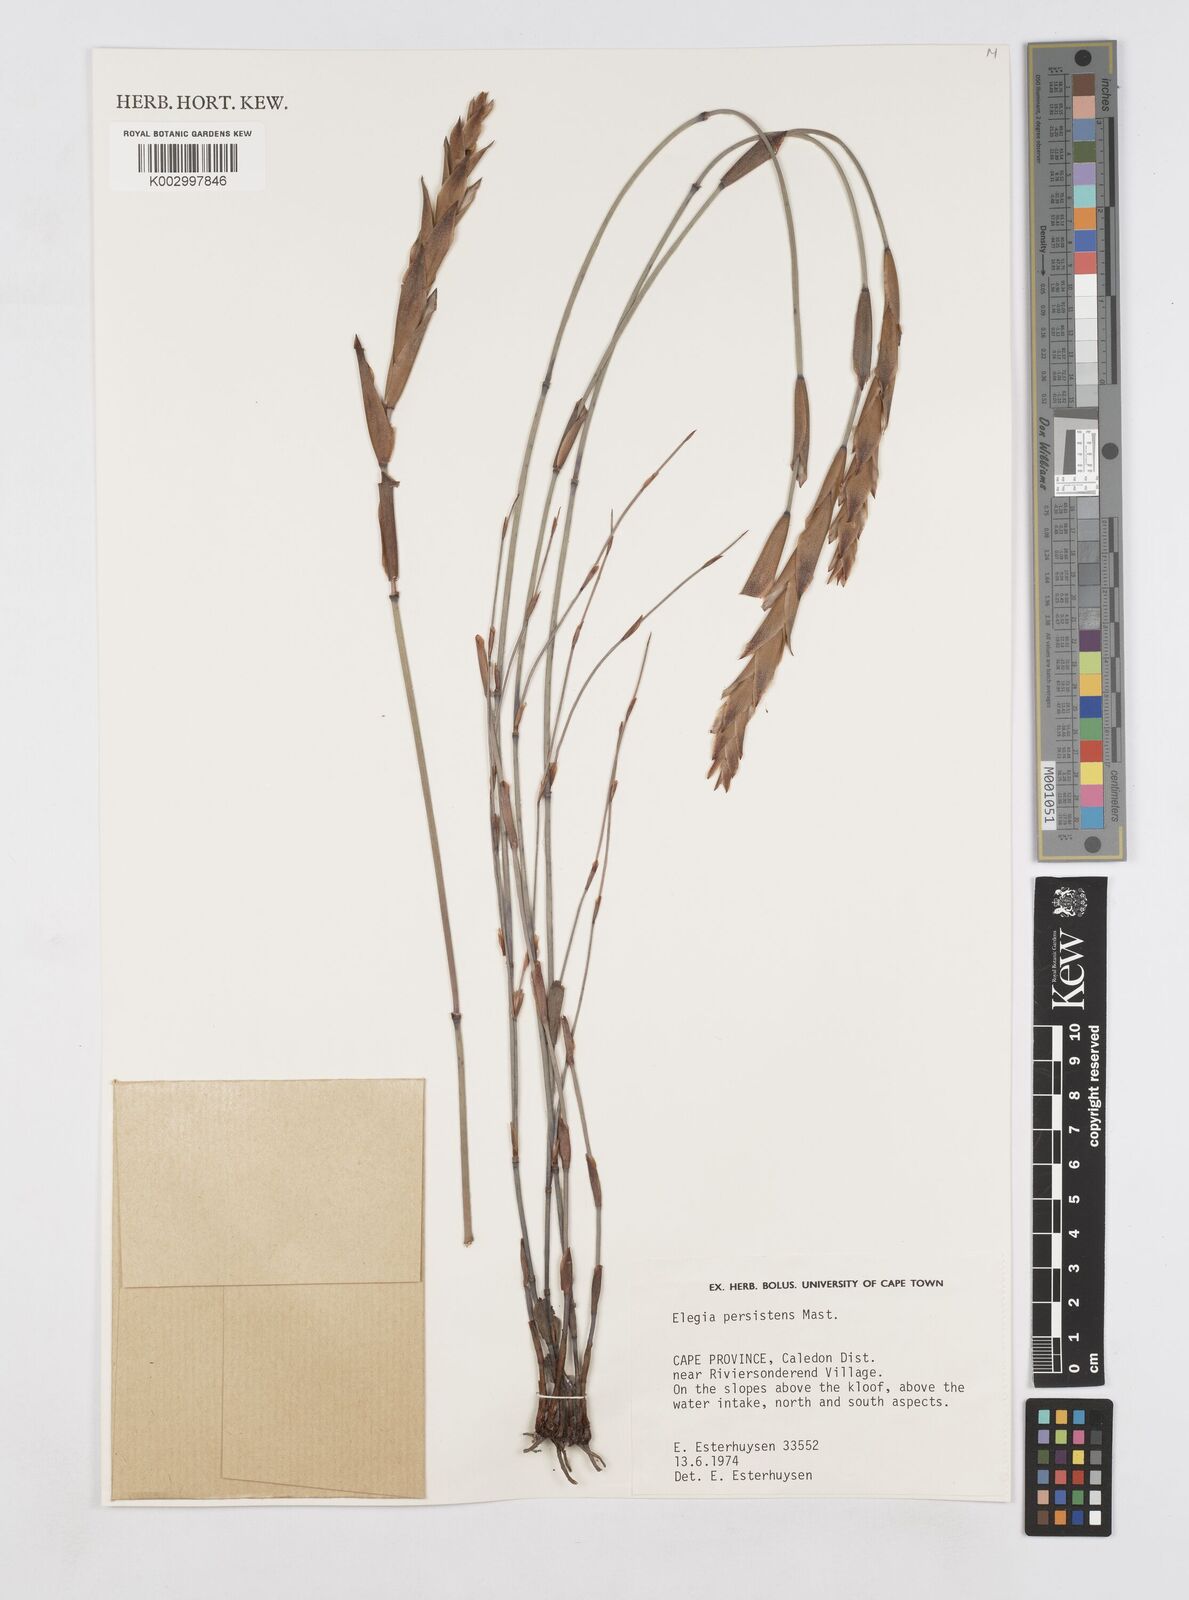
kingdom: Plantae
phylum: Tracheophyta
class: Liliopsida
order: Poales
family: Restionaceae
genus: Elegia
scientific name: Elegia persistens
